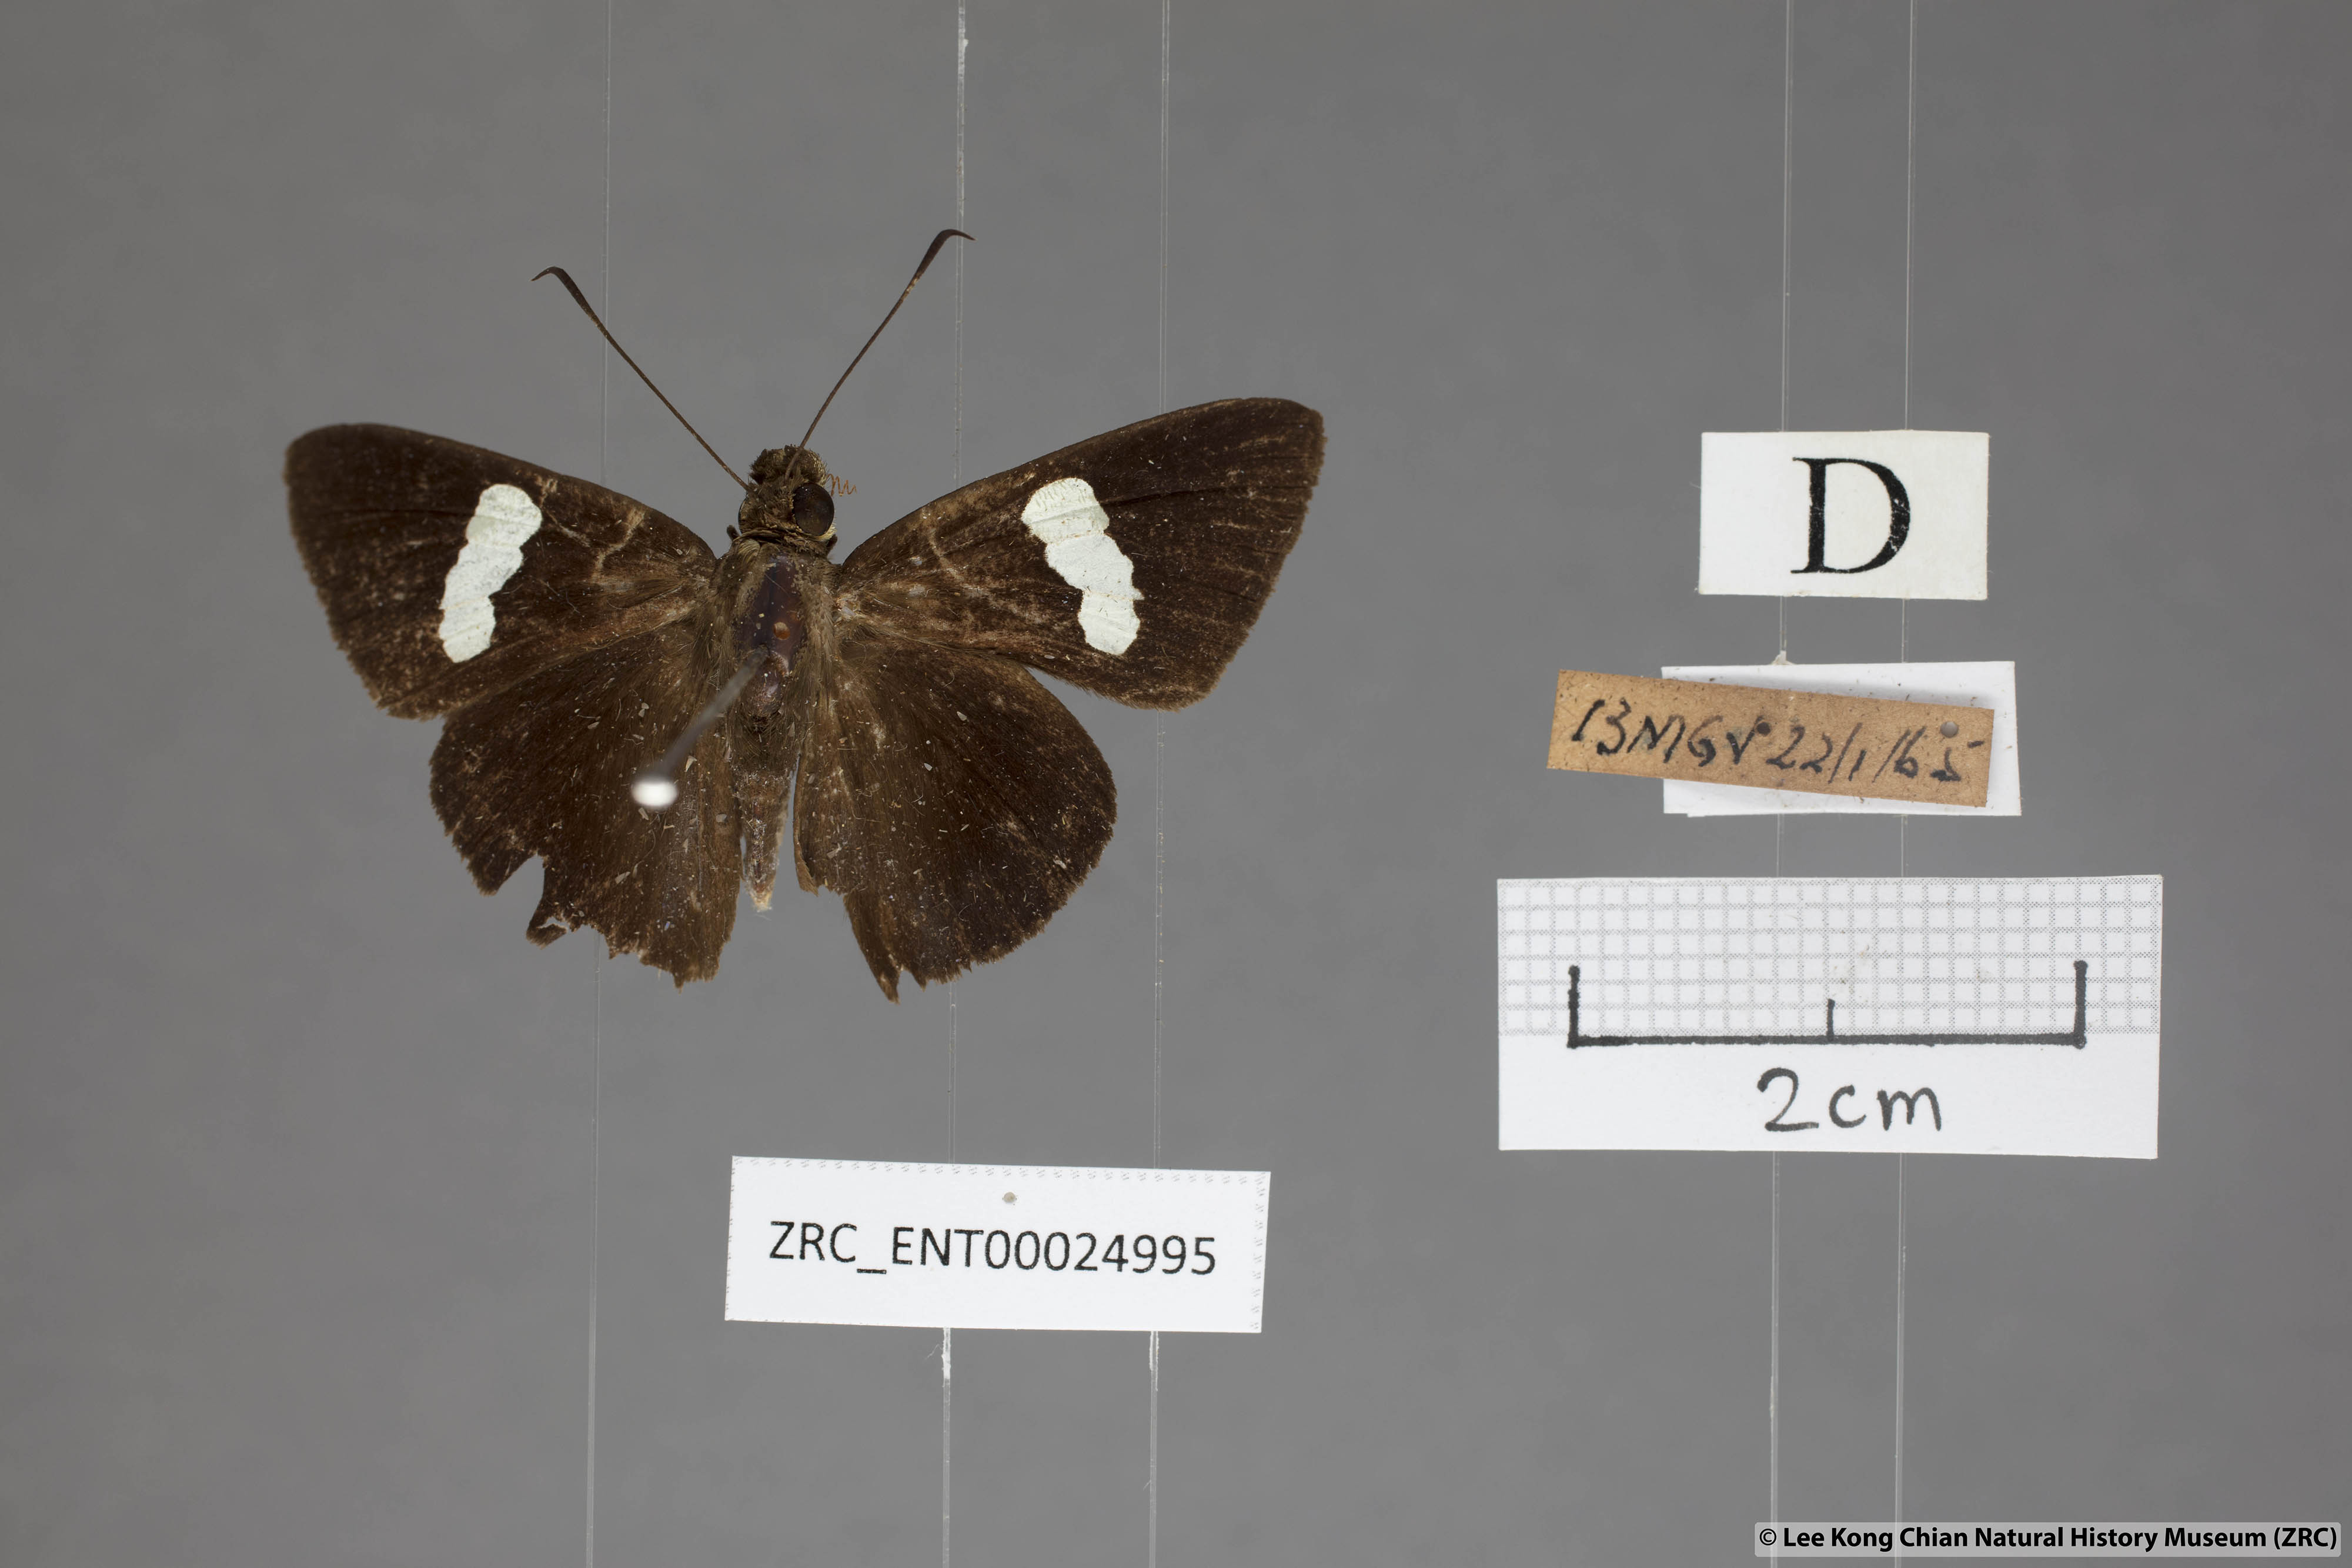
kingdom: Animalia
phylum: Arthropoda
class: Insecta
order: Lepidoptera
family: Hesperiidae
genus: Notocrypta
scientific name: Notocrypta clavata
